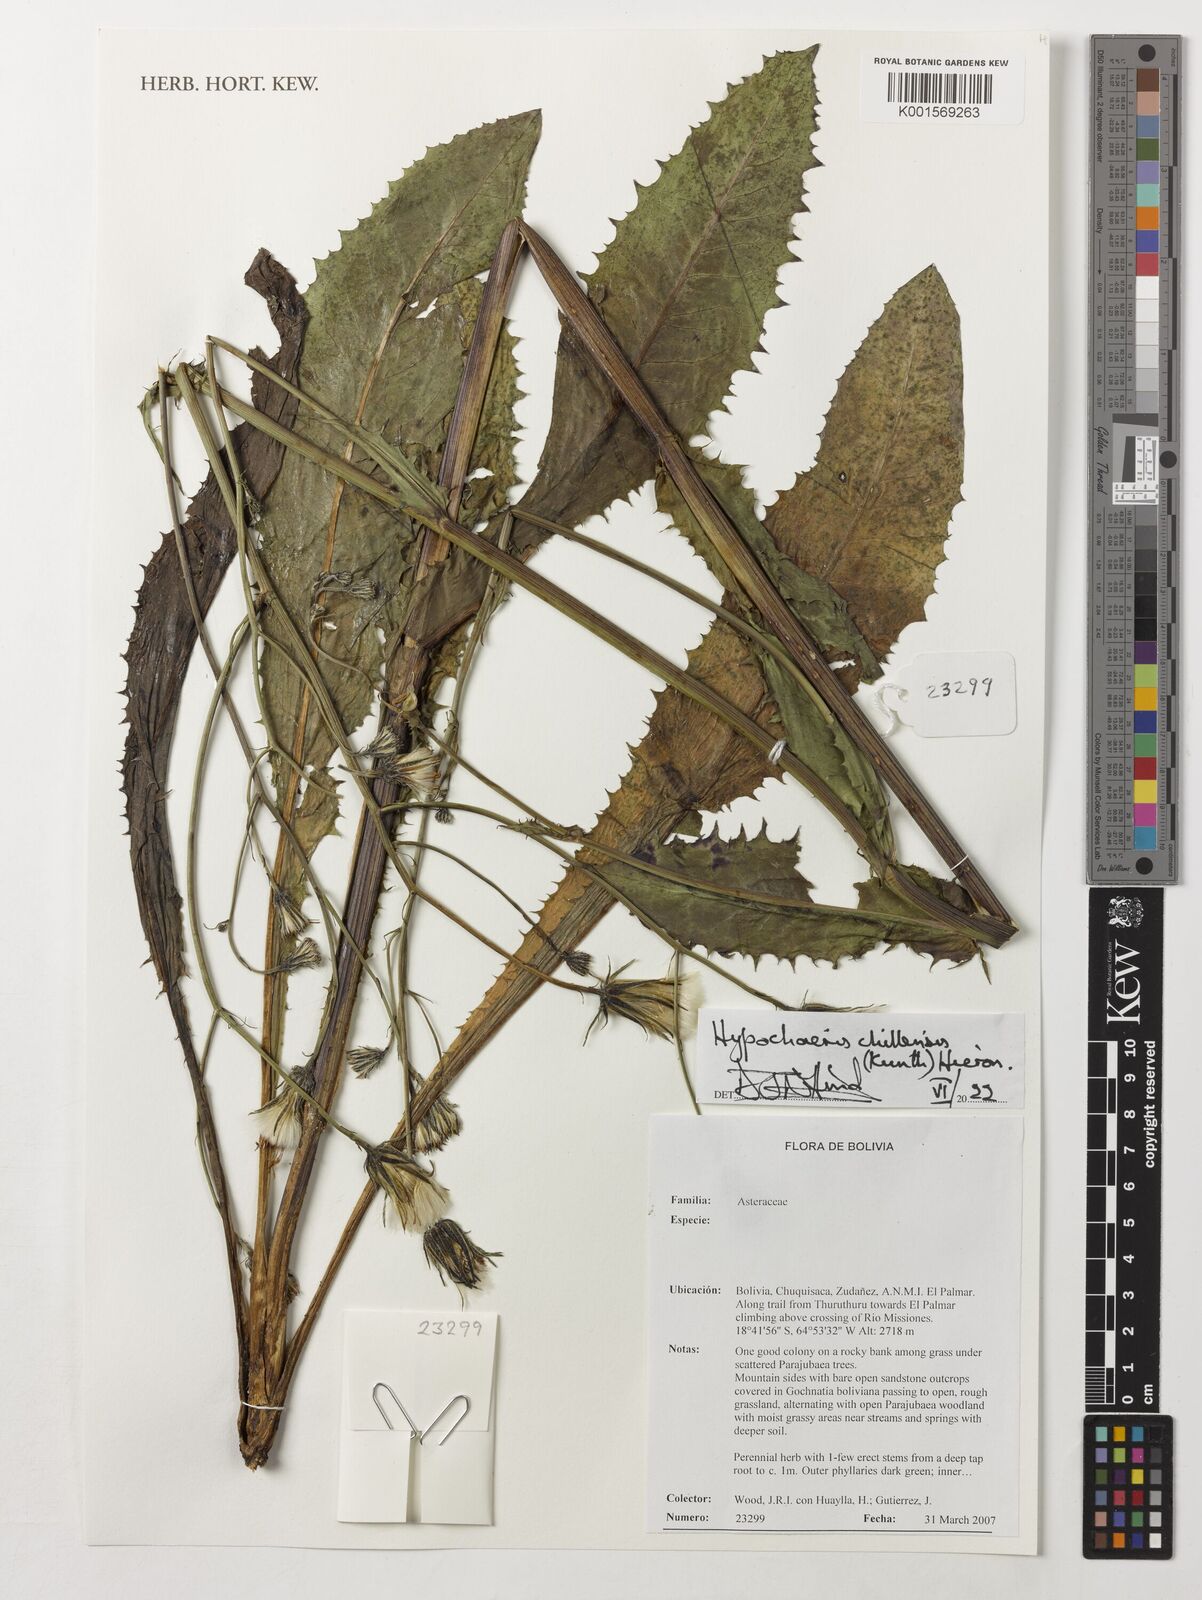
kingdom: Plantae
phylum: Tracheophyta
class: Magnoliopsida
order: Asterales
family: Asteraceae
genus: Hypochaeris
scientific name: Hypochaeris chillensis
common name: Brazilian cat's ear
